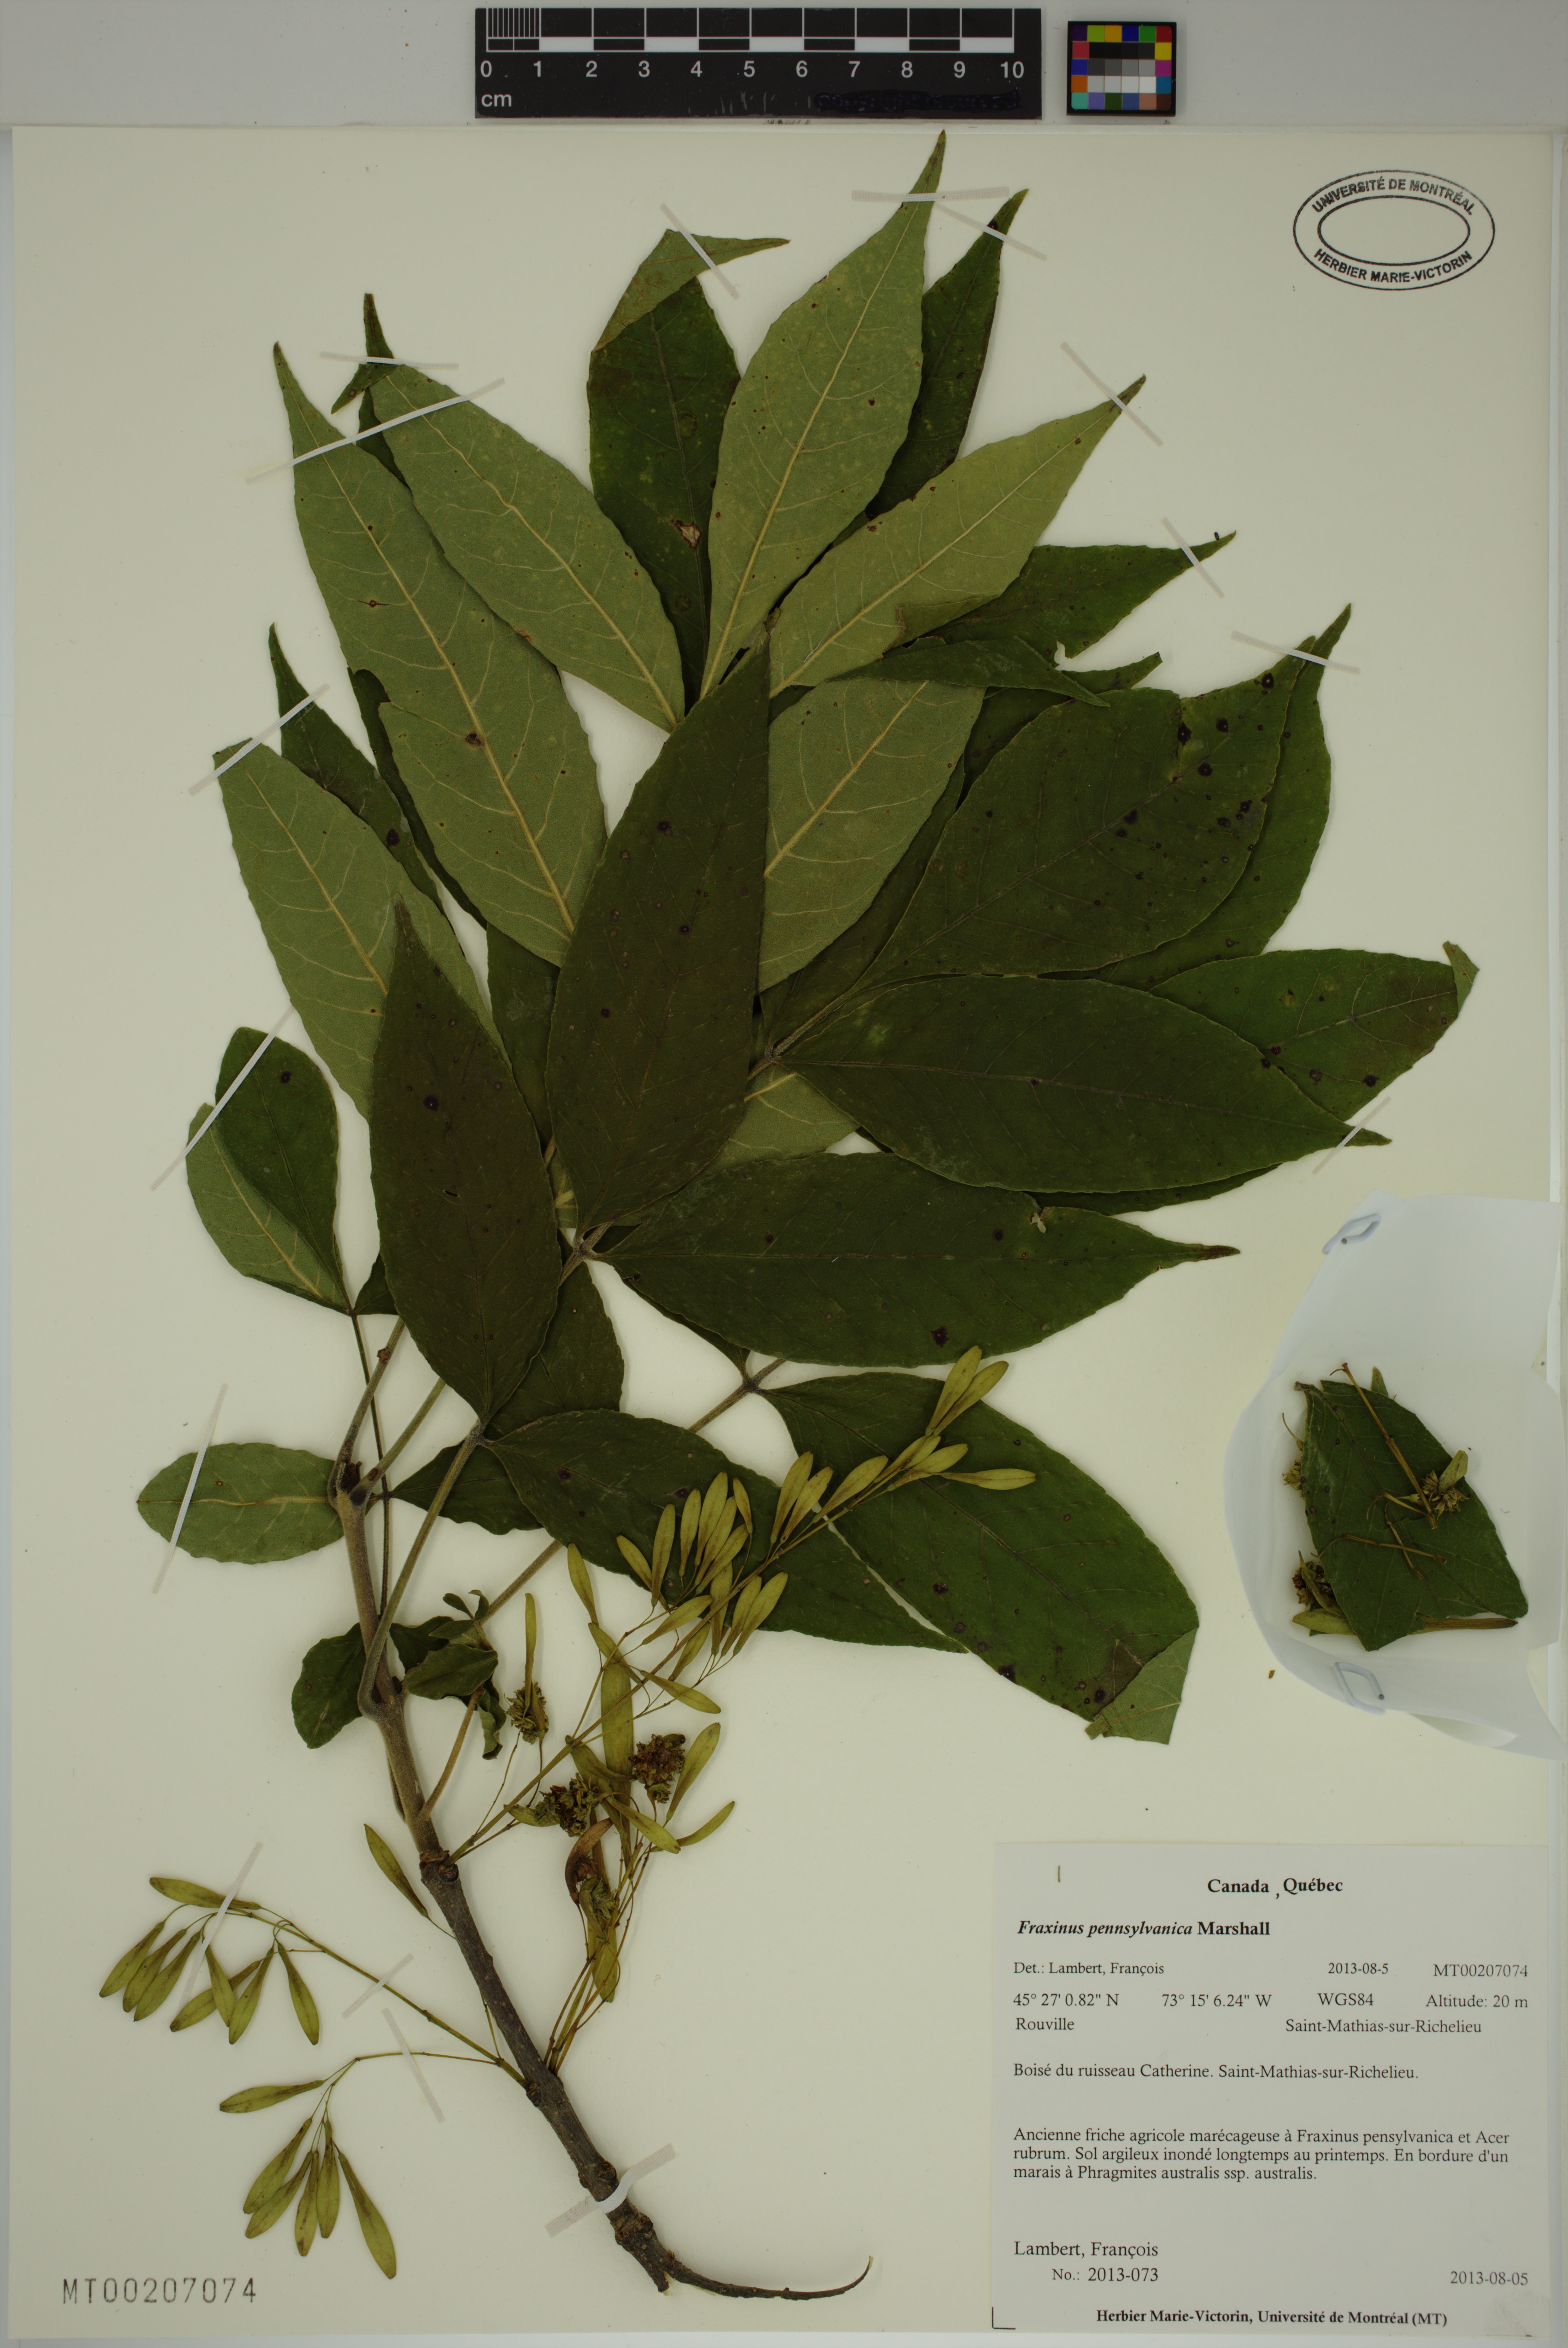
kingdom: Plantae
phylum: Tracheophyta
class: Magnoliopsida
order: Lamiales
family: Oleaceae
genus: Fraxinus
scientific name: Fraxinus pennsylvanica
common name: Green ash
